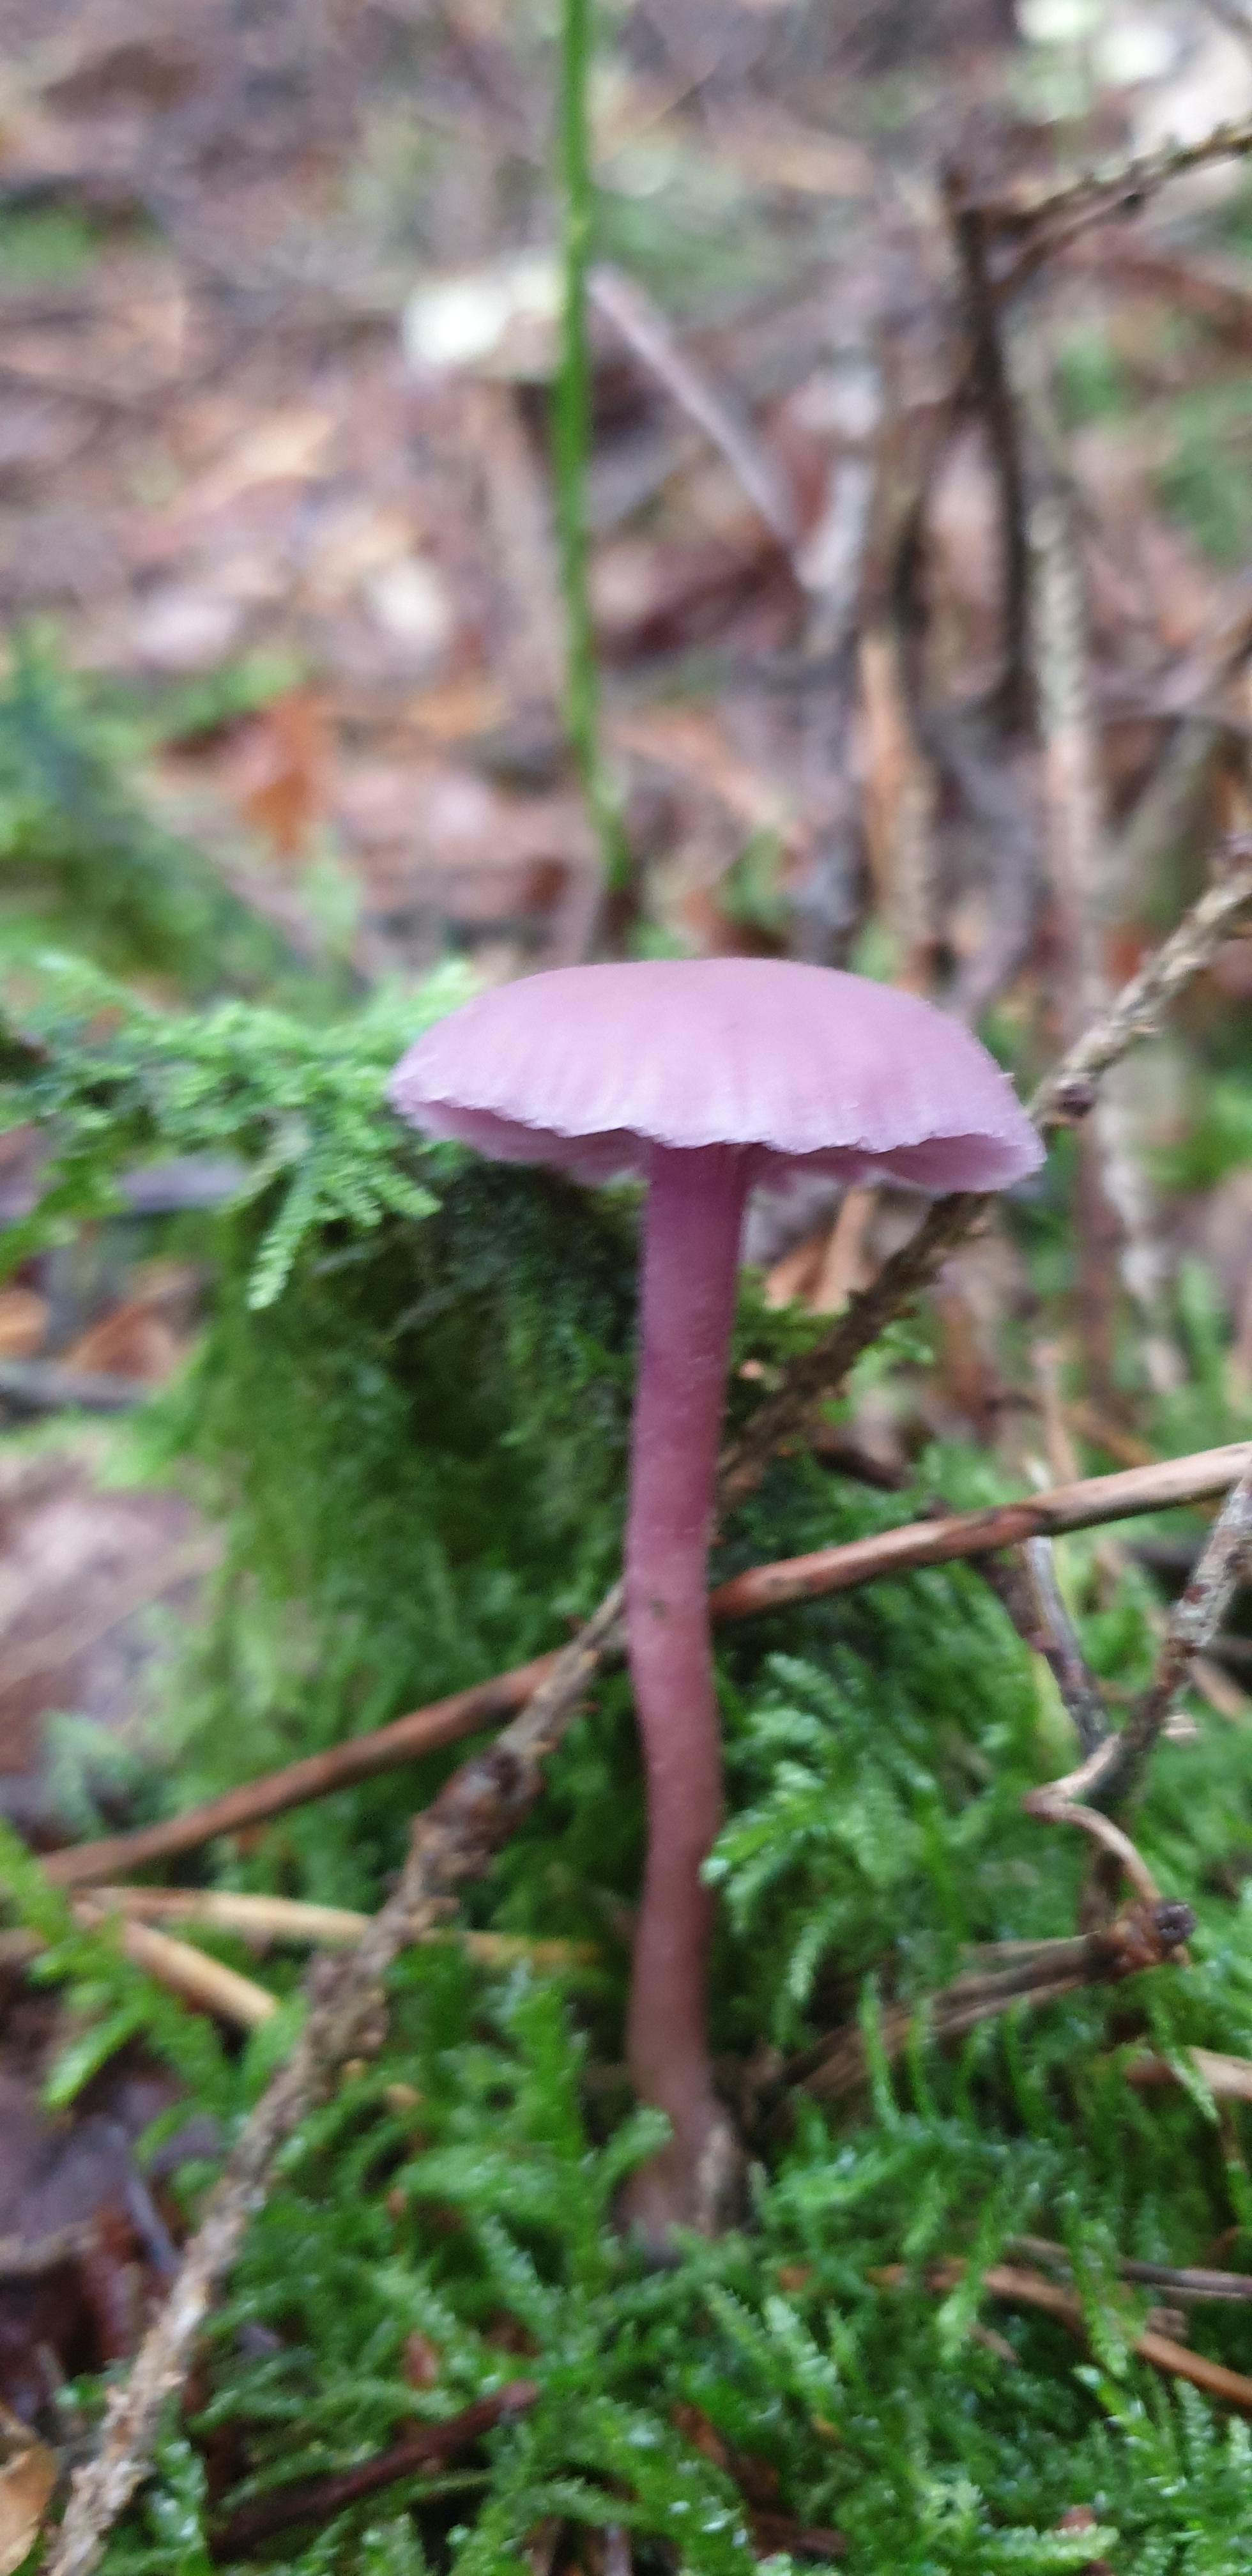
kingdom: Fungi
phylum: Basidiomycota
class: Agaricomycetes
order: Agaricales
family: Hydnangiaceae
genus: Laccaria
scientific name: Laccaria amethystina
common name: violet ametysthat
